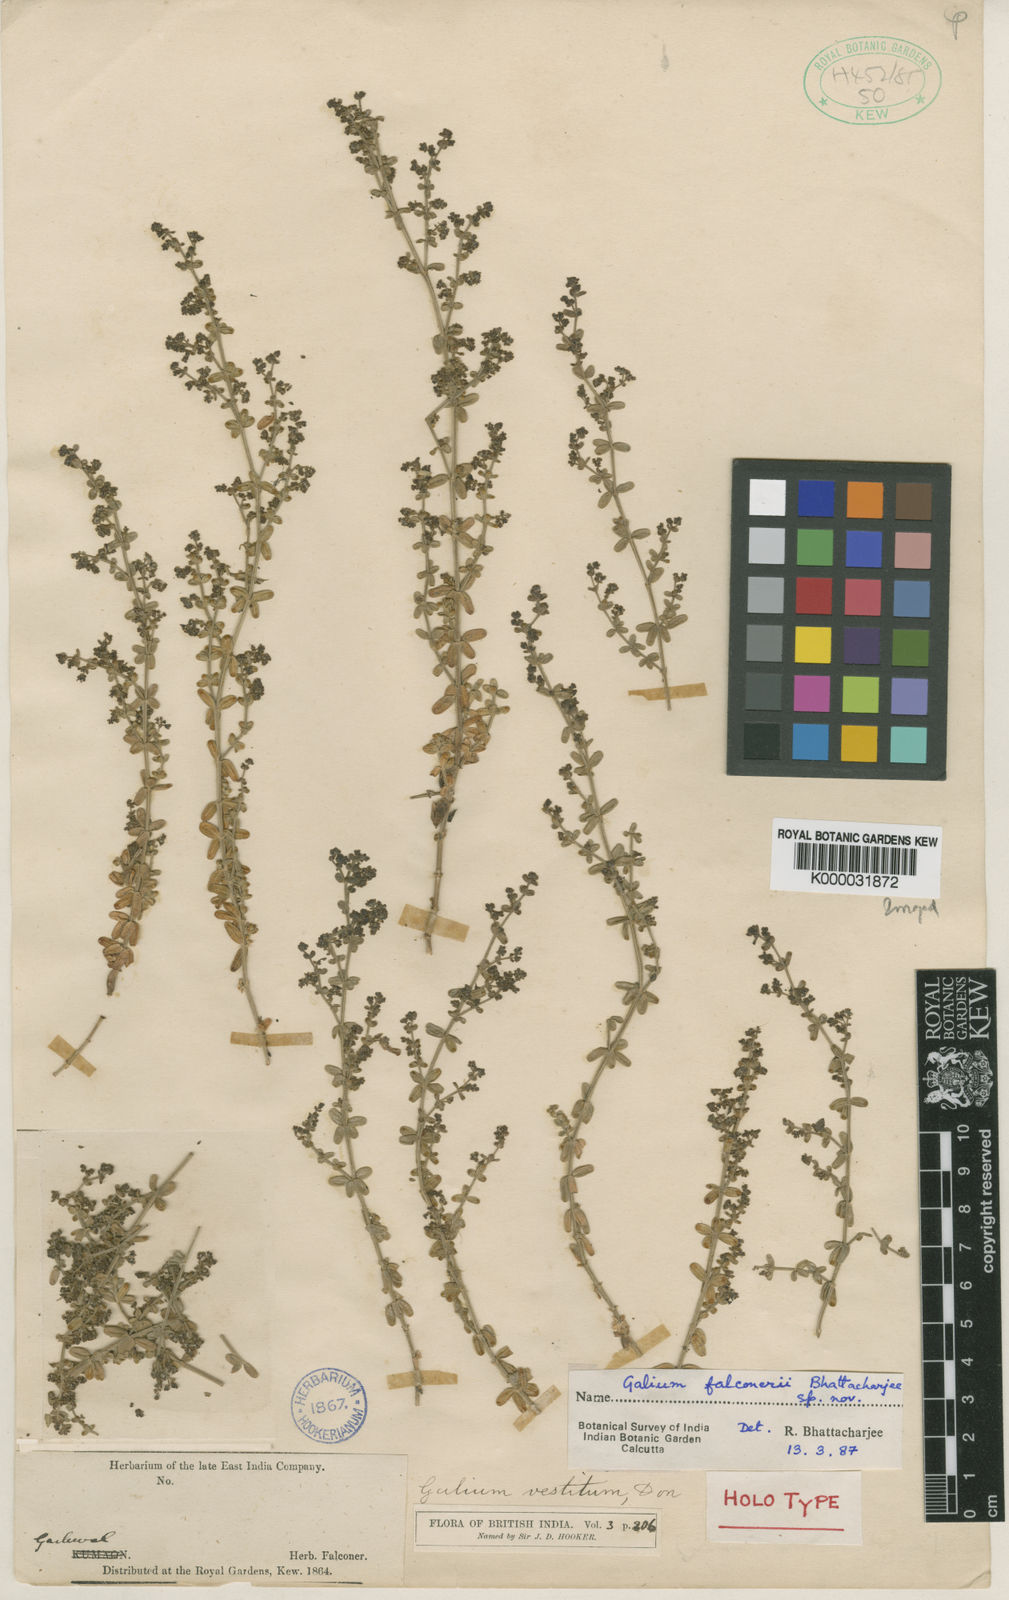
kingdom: Plantae
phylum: Tracheophyta
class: Magnoliopsida
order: Gentianales
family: Rubiaceae
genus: Galium
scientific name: Galium falconeri
